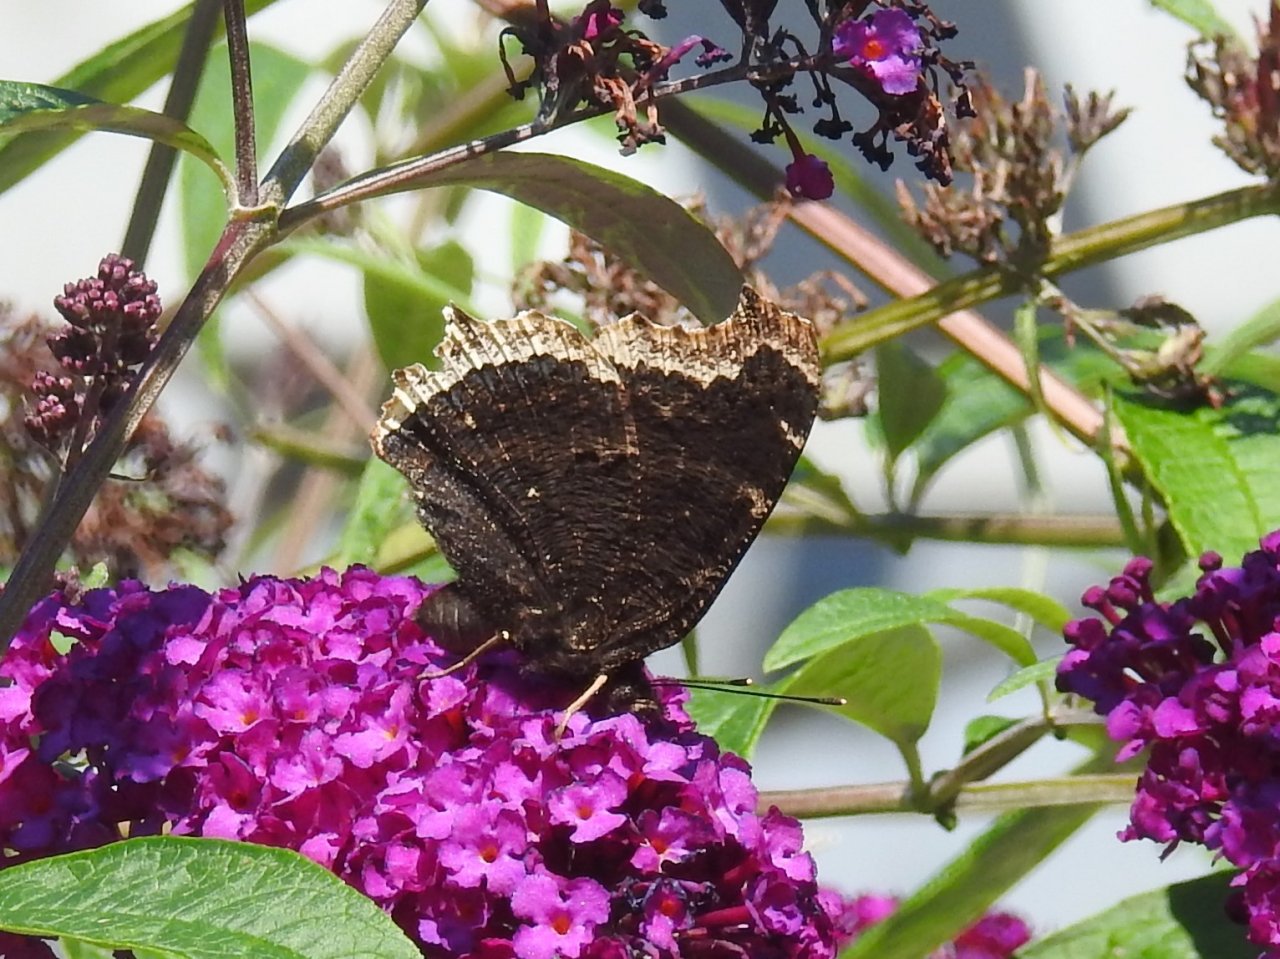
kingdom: Animalia
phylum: Arthropoda
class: Insecta
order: Lepidoptera
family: Nymphalidae
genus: Nymphalis
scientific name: Nymphalis antiopa
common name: Mourning Cloak
